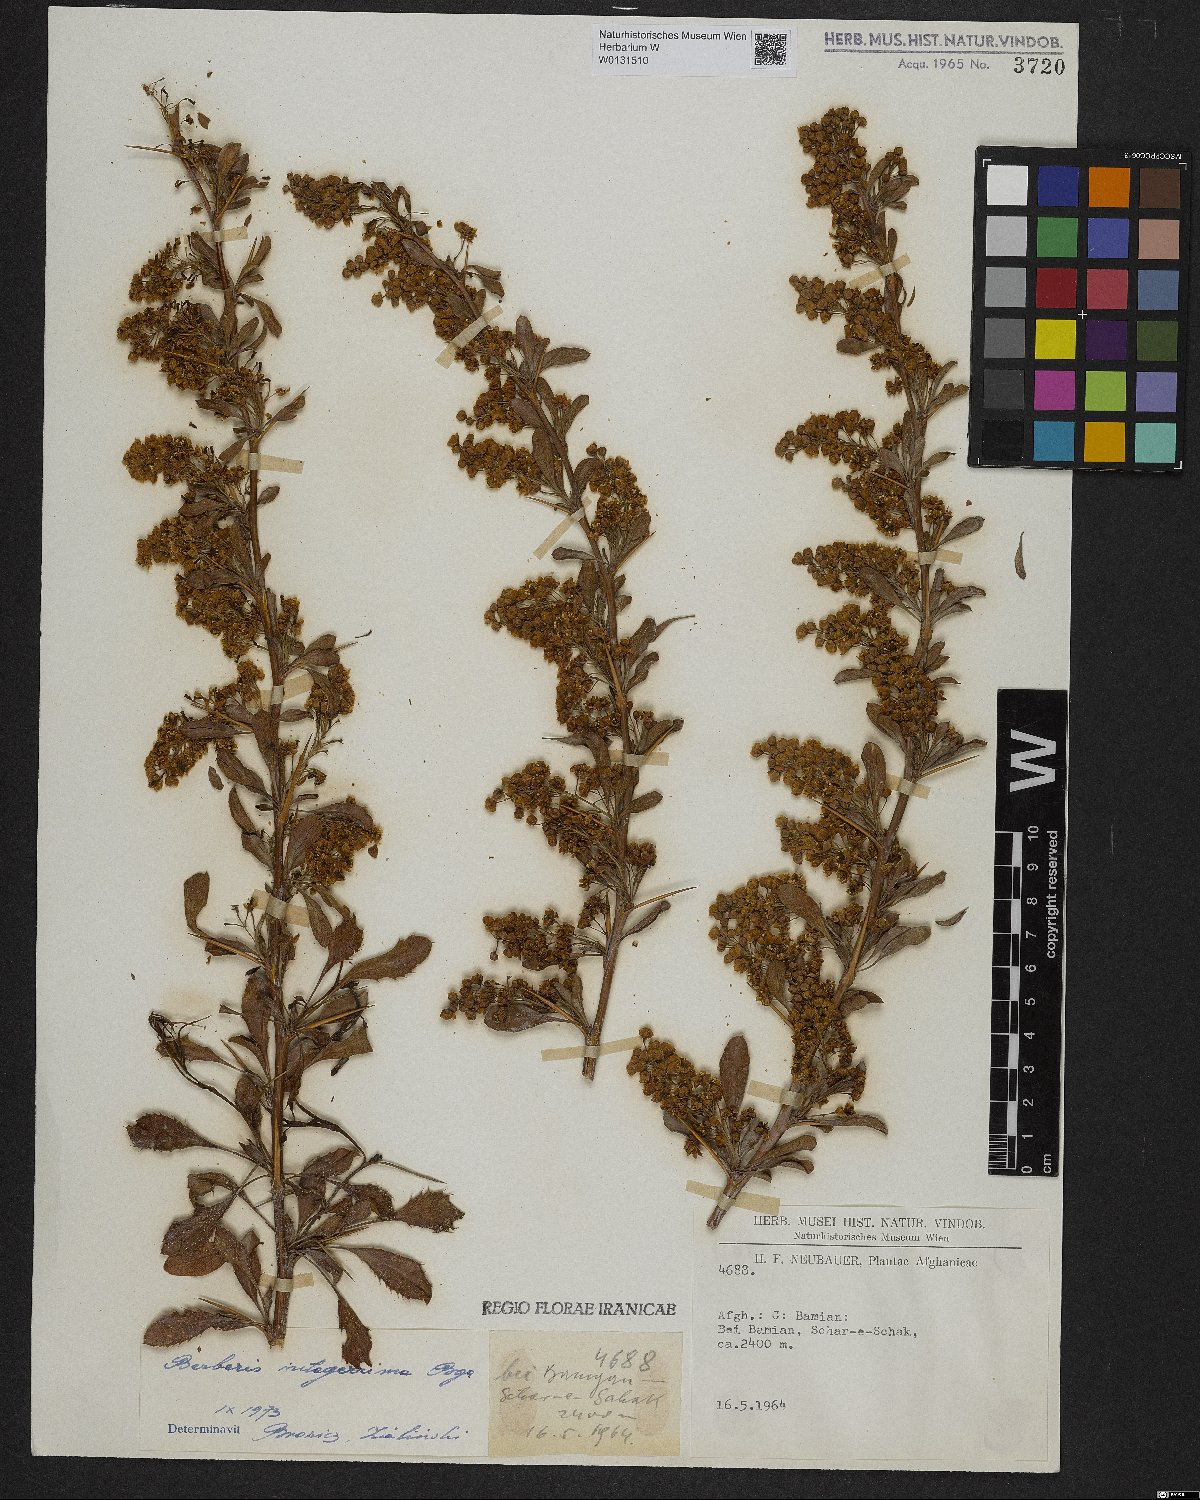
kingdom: Plantae
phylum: Tracheophyta
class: Magnoliopsida
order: Ranunculales
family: Berberidaceae
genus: Berberis
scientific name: Berberis integerrima
